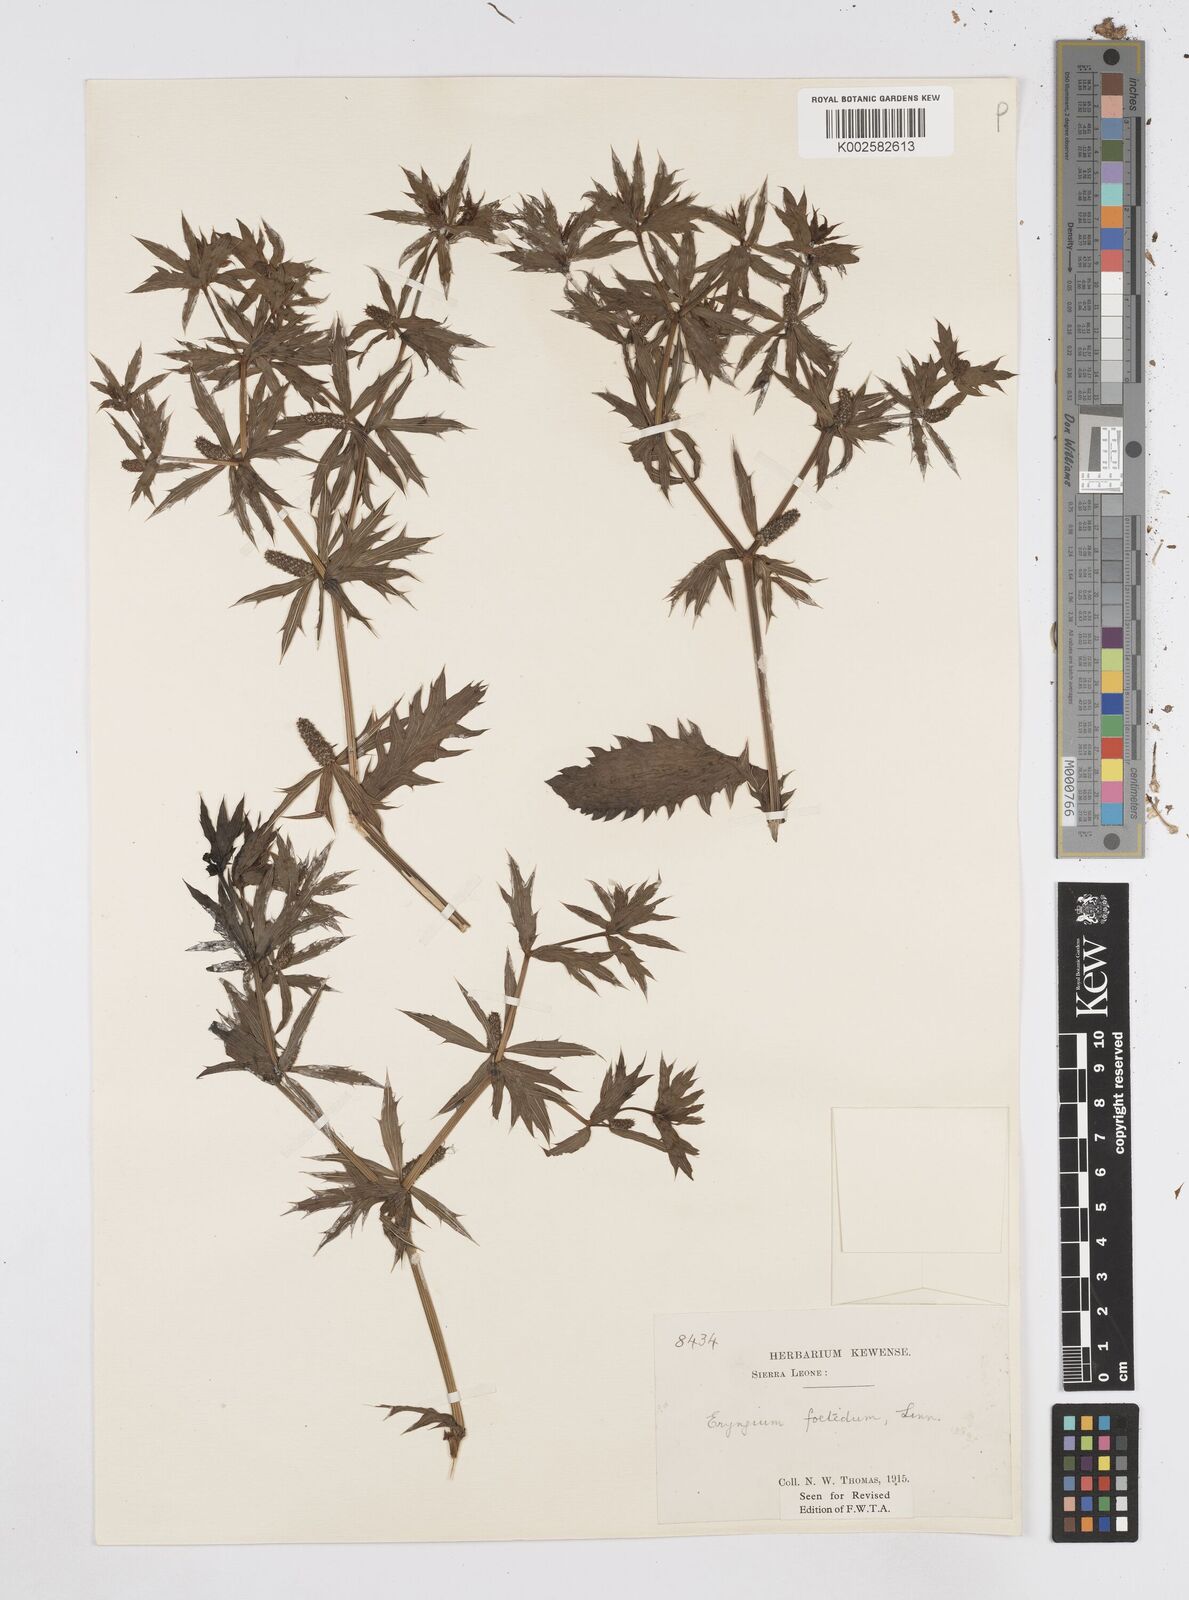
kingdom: Plantae
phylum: Tracheophyta
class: Magnoliopsida
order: Apiales
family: Apiaceae
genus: Eryngium
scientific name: Eryngium foetidum
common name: Fitweed
